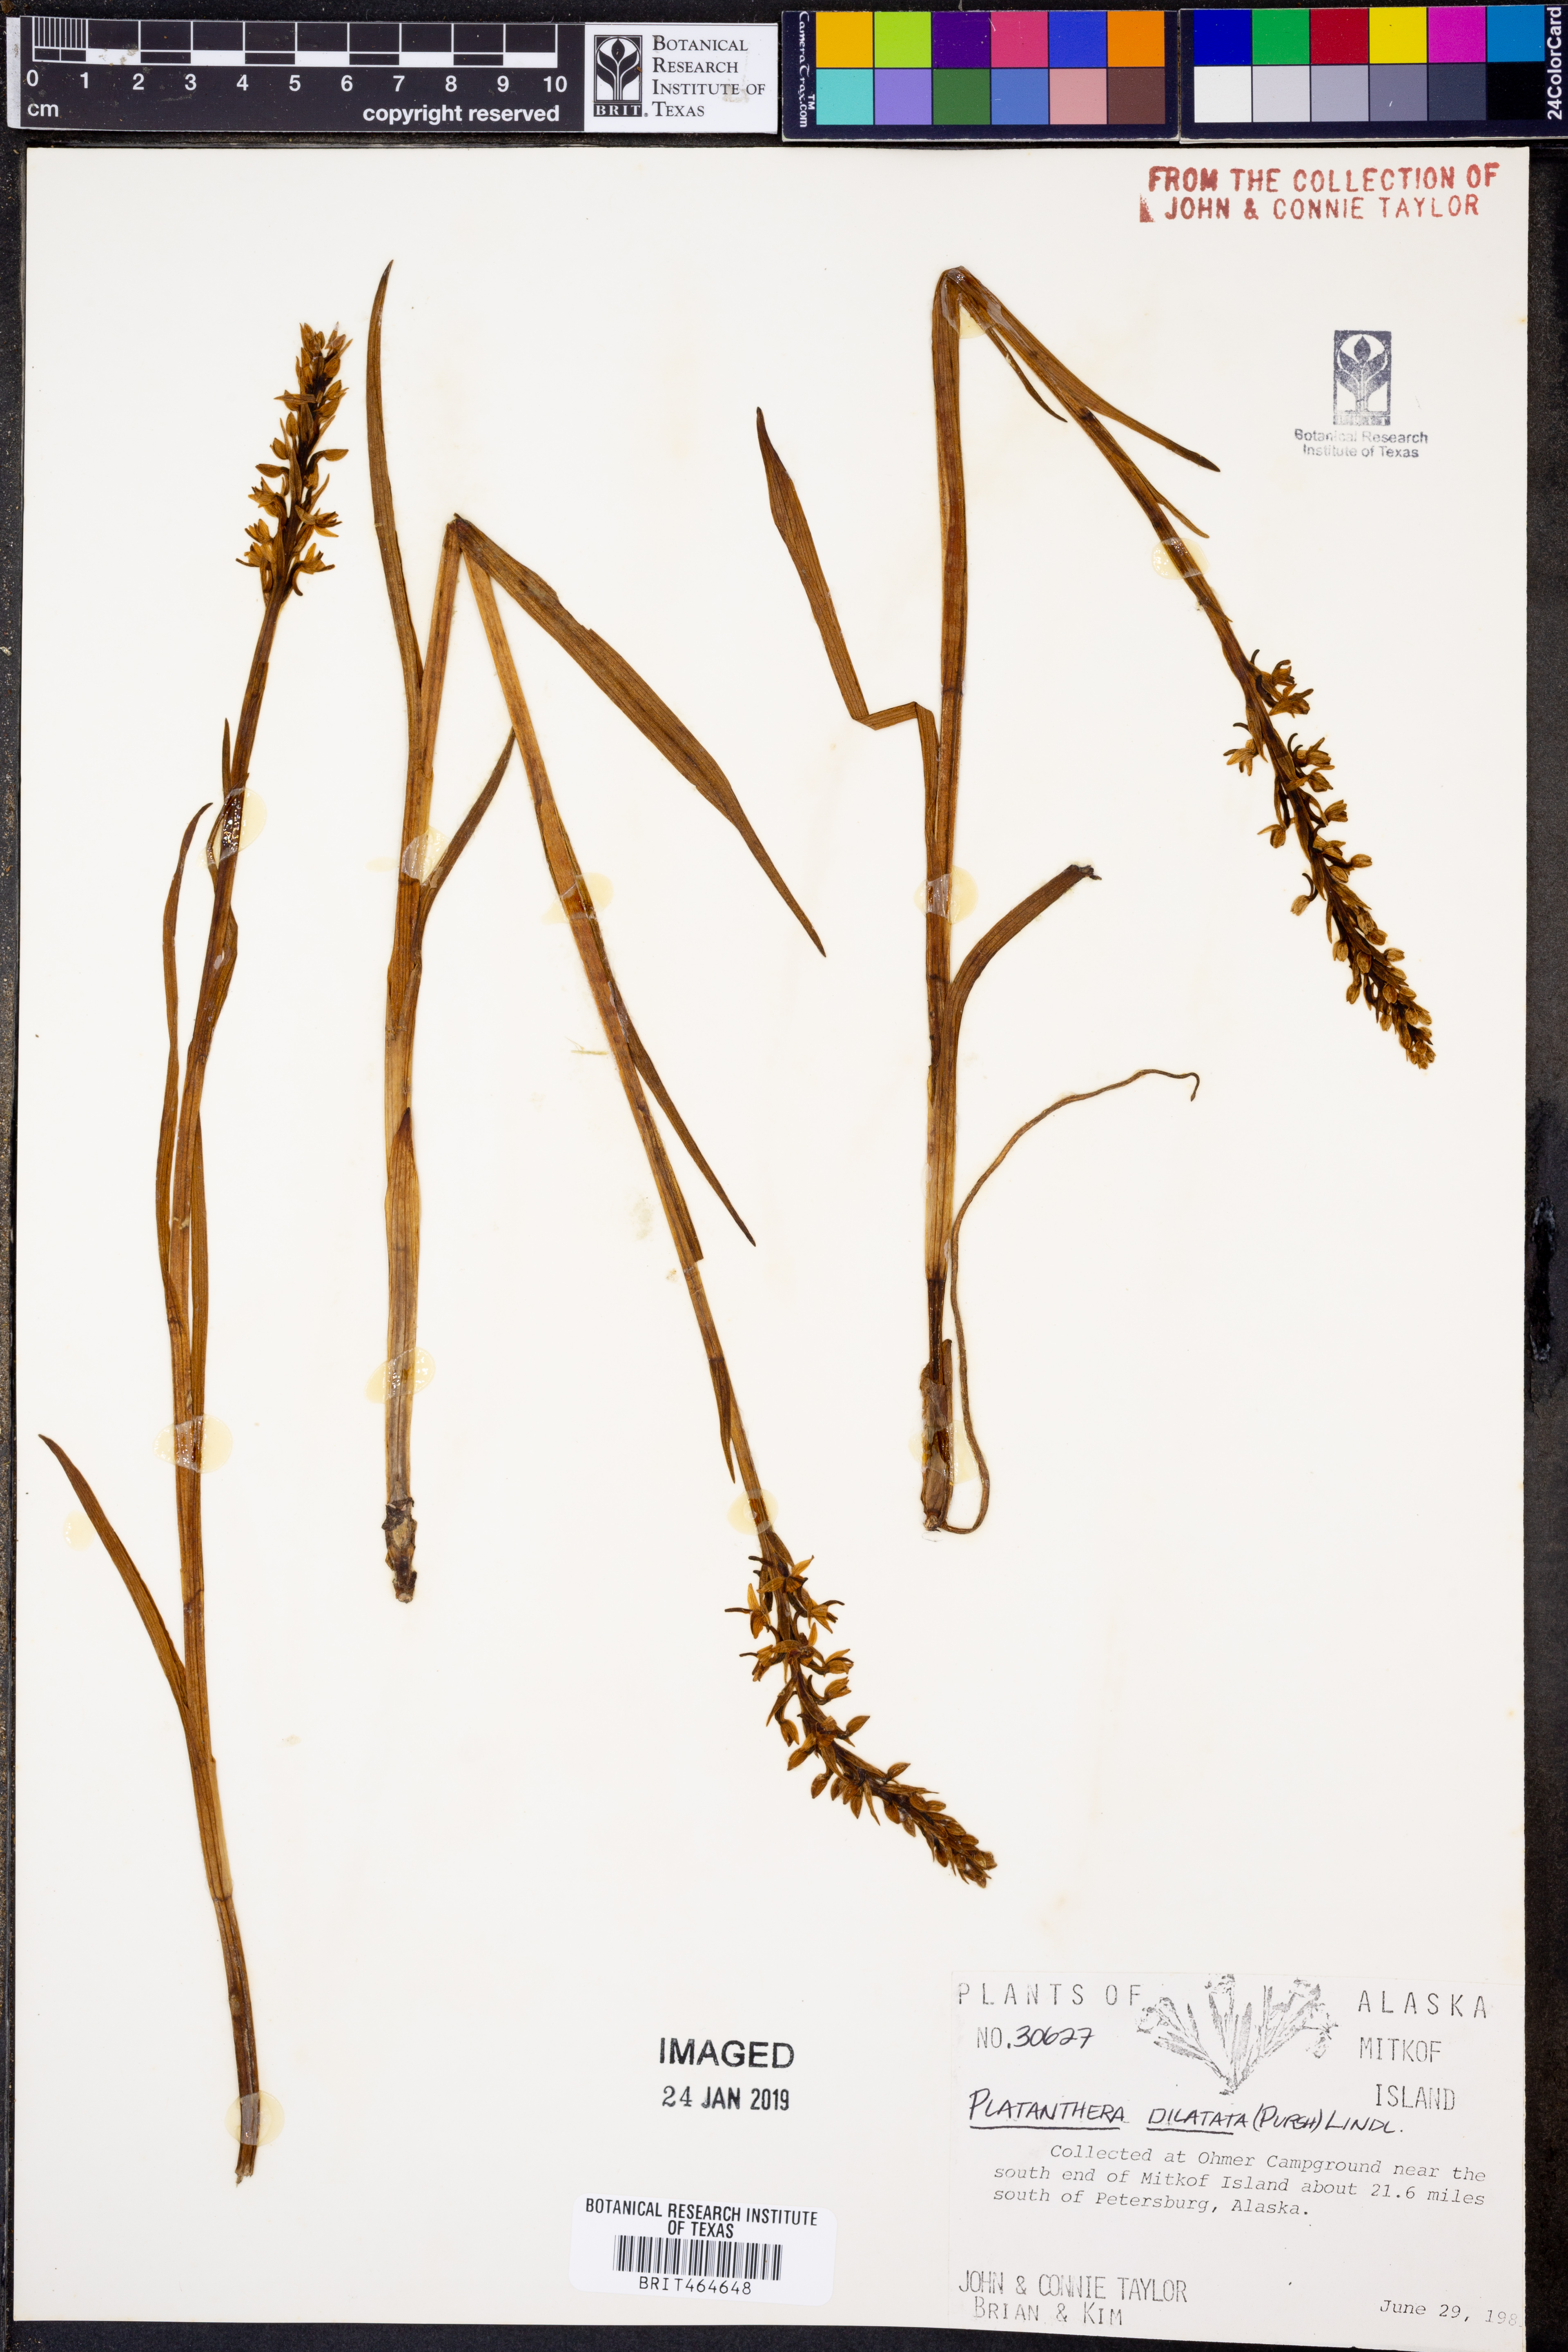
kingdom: Plantae
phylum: Tracheophyta
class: Liliopsida
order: Asparagales
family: Orchidaceae
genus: Platanthera
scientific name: Platanthera dilatata
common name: Bog candles
